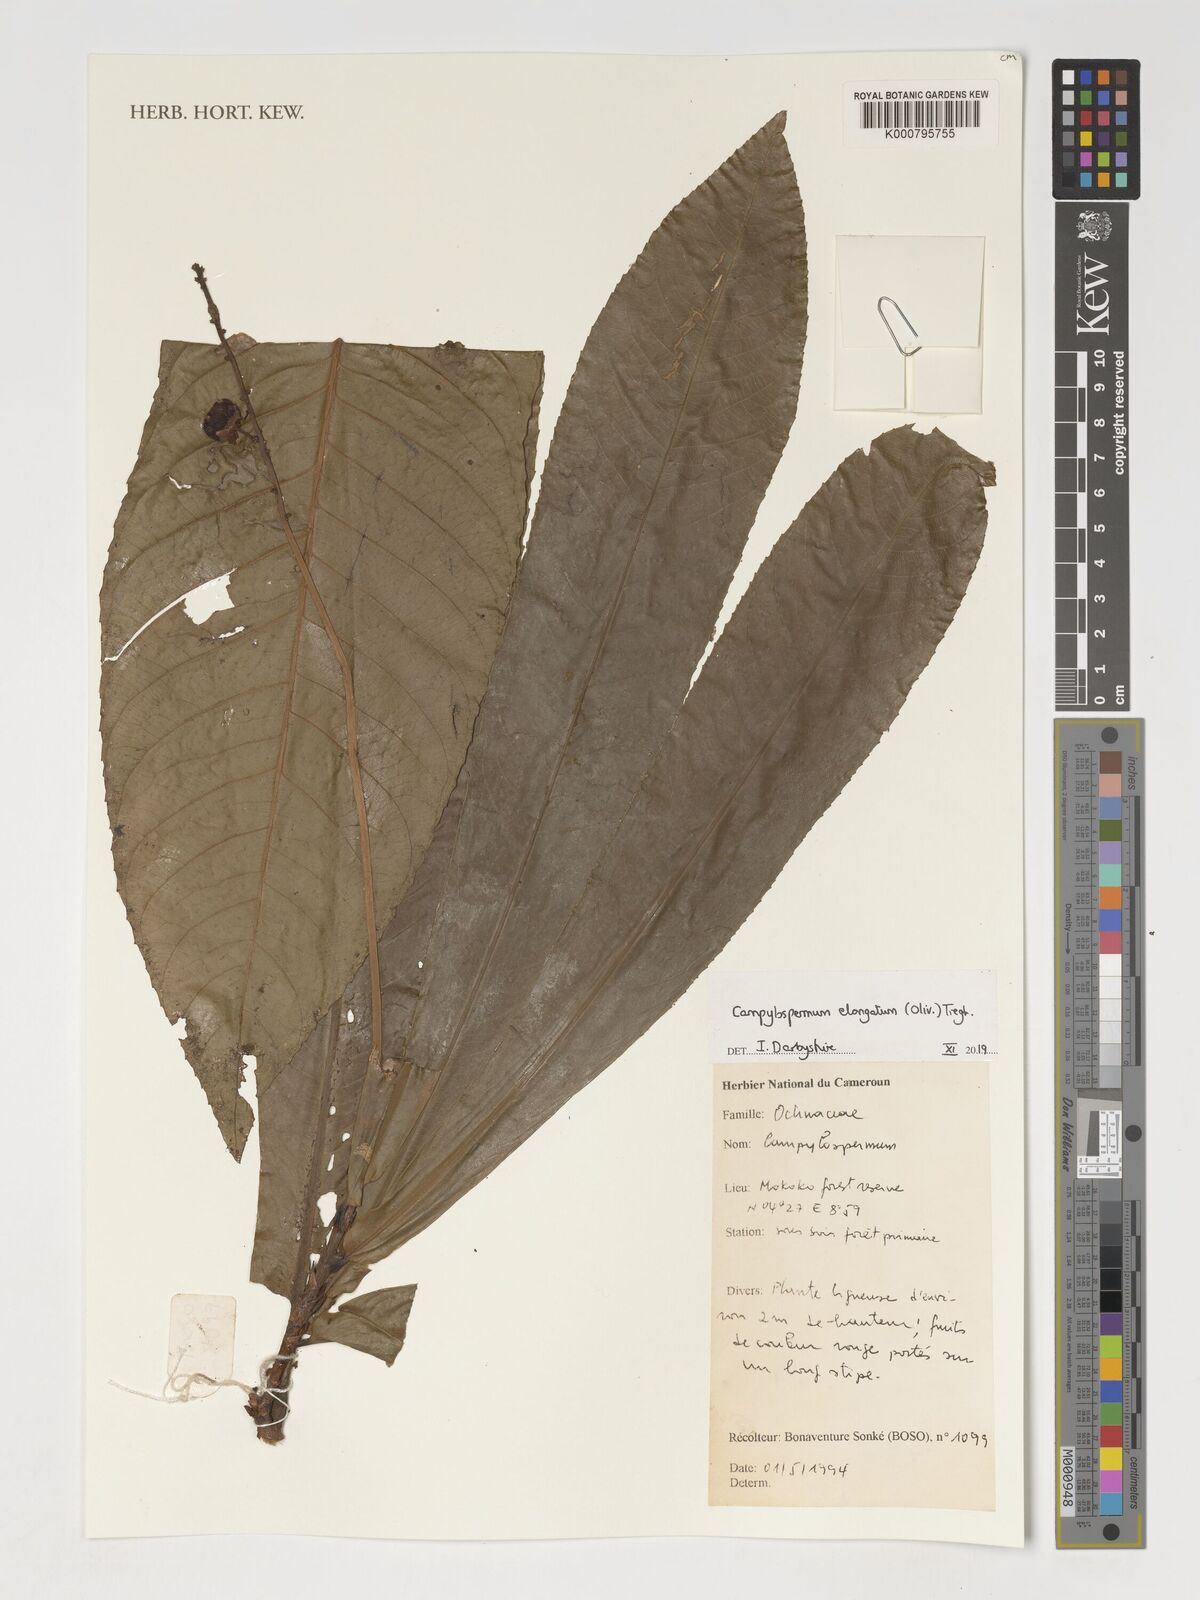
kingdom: Plantae
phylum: Tracheophyta
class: Magnoliopsida
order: Malpighiales
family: Ochnaceae
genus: Gomphia
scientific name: Gomphia elongata
